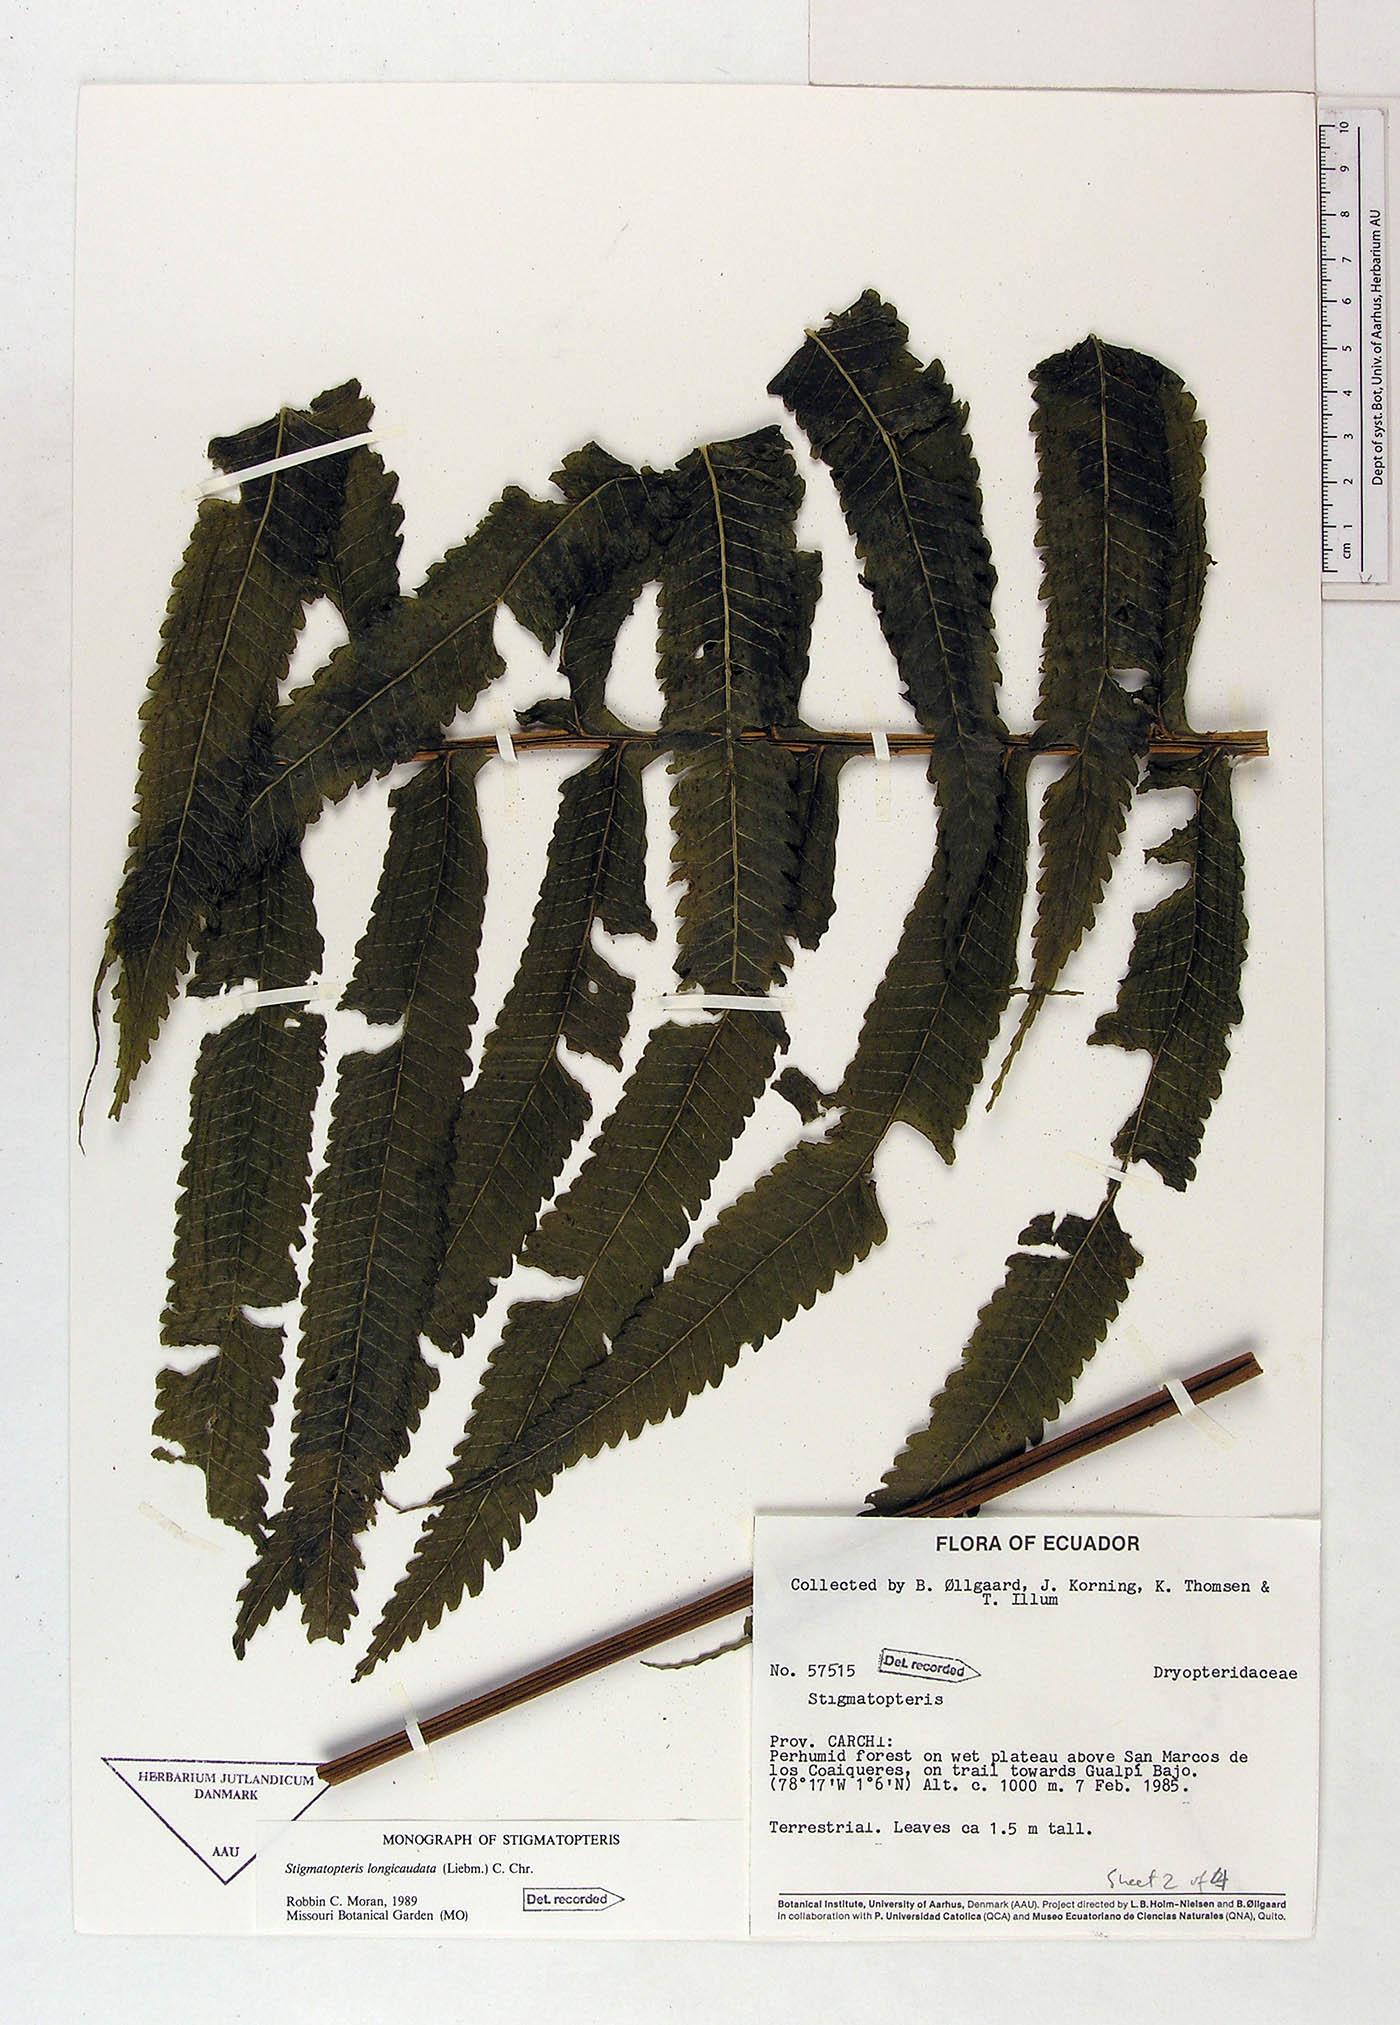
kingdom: Plantae
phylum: Tracheophyta
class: Polypodiopsida
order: Polypodiales
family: Dryopteridaceae
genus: Stigmatopteris
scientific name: Stigmatopteris longicaudata
